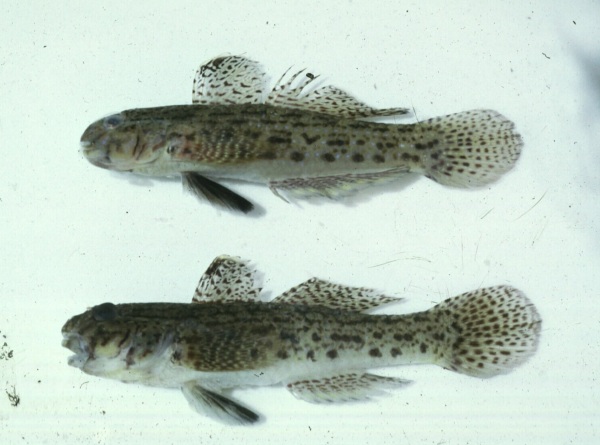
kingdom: Animalia
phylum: Chordata
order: Perciformes
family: Gobiidae
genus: Istigobius
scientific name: Istigobius ornatus
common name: Ornate goby
